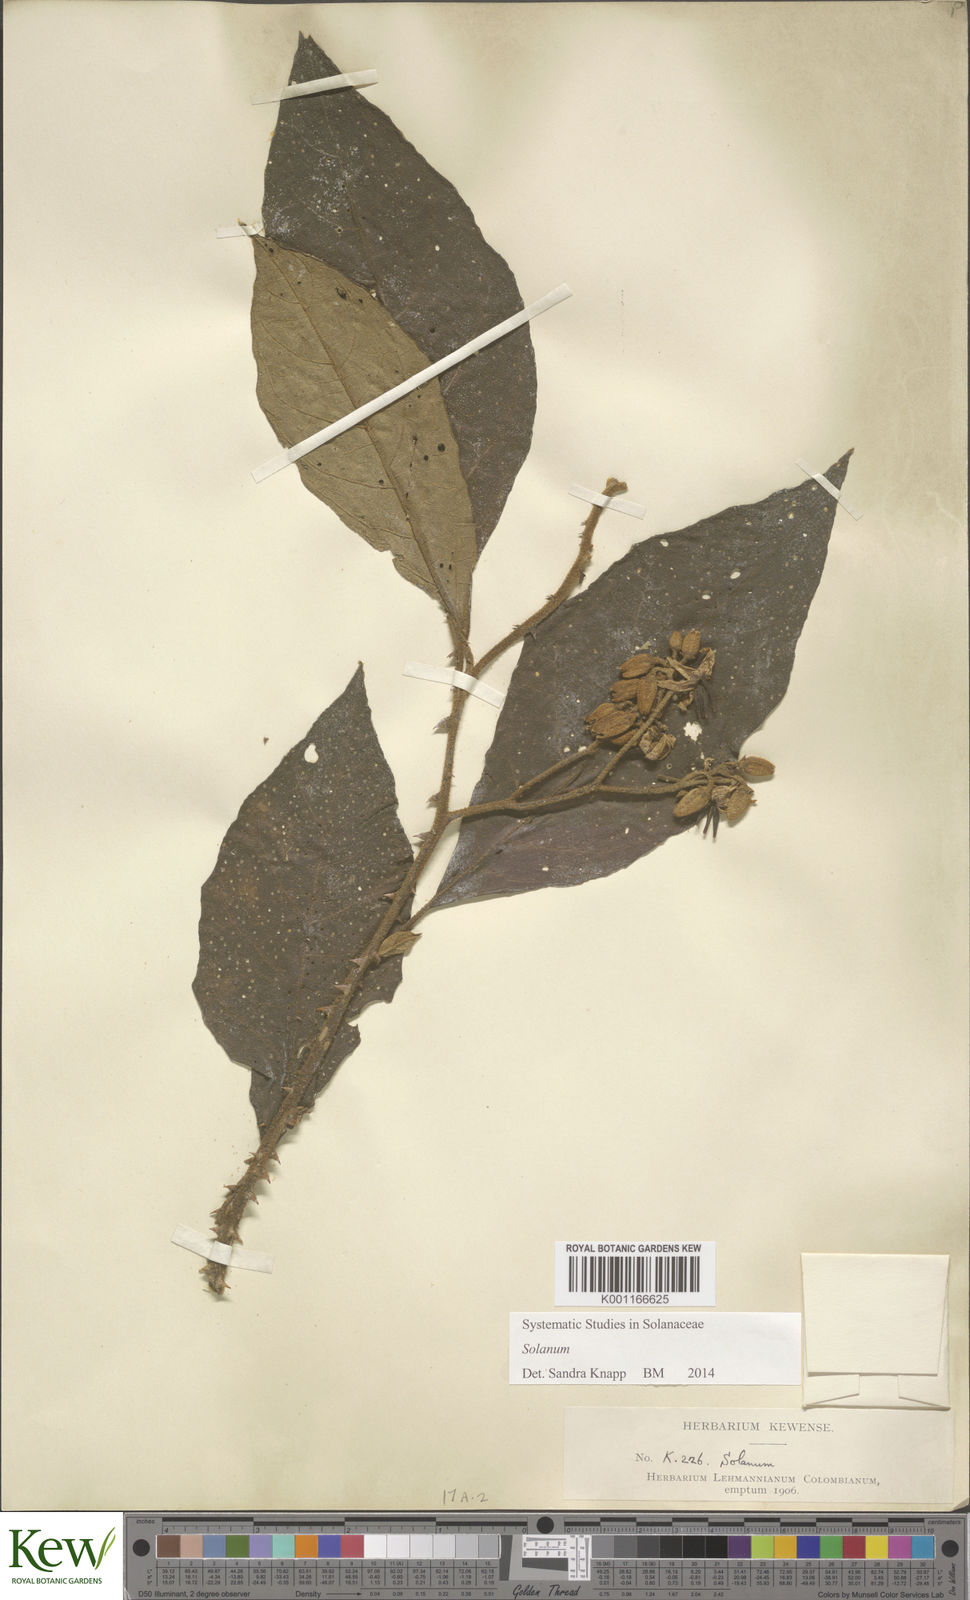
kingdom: Plantae
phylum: Tracheophyta
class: Magnoliopsida
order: Solanales
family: Solanaceae
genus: Solanum
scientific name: Solanum
